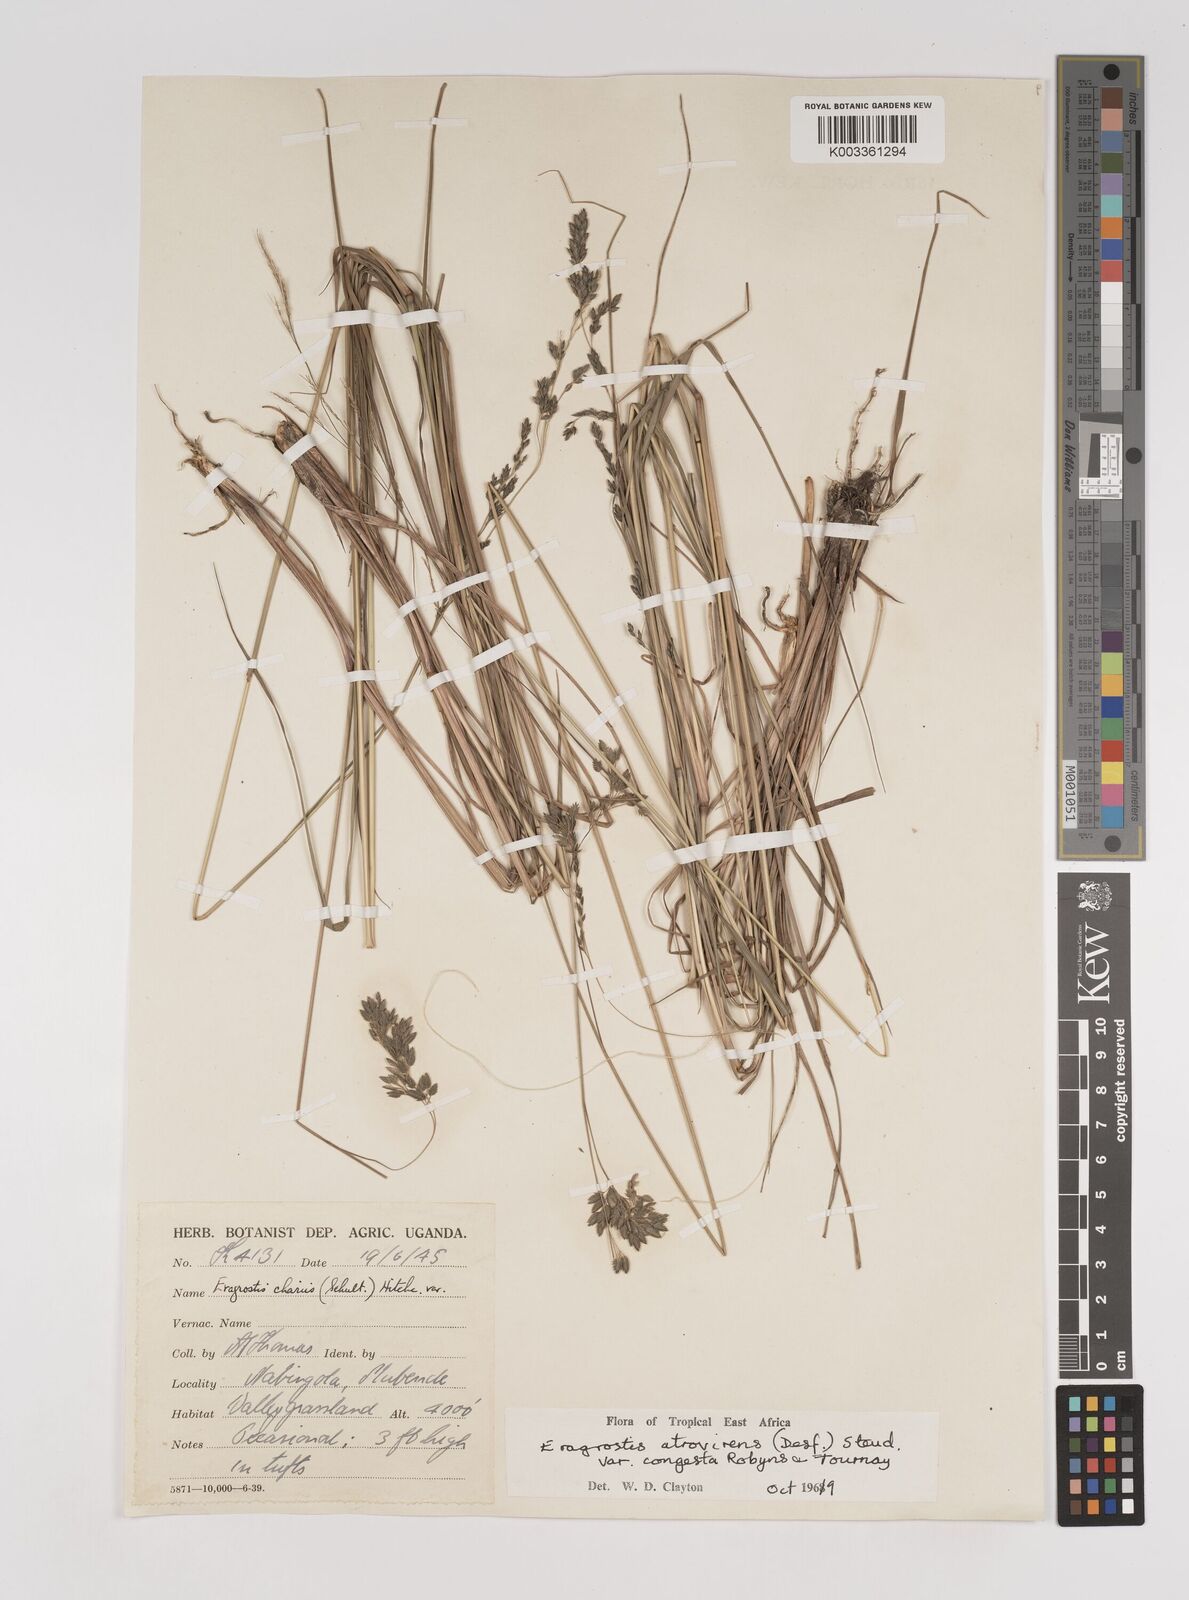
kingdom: Plantae
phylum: Tracheophyta
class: Liliopsida
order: Poales
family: Poaceae
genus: Eragrostis
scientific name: Eragrostis botryodes
